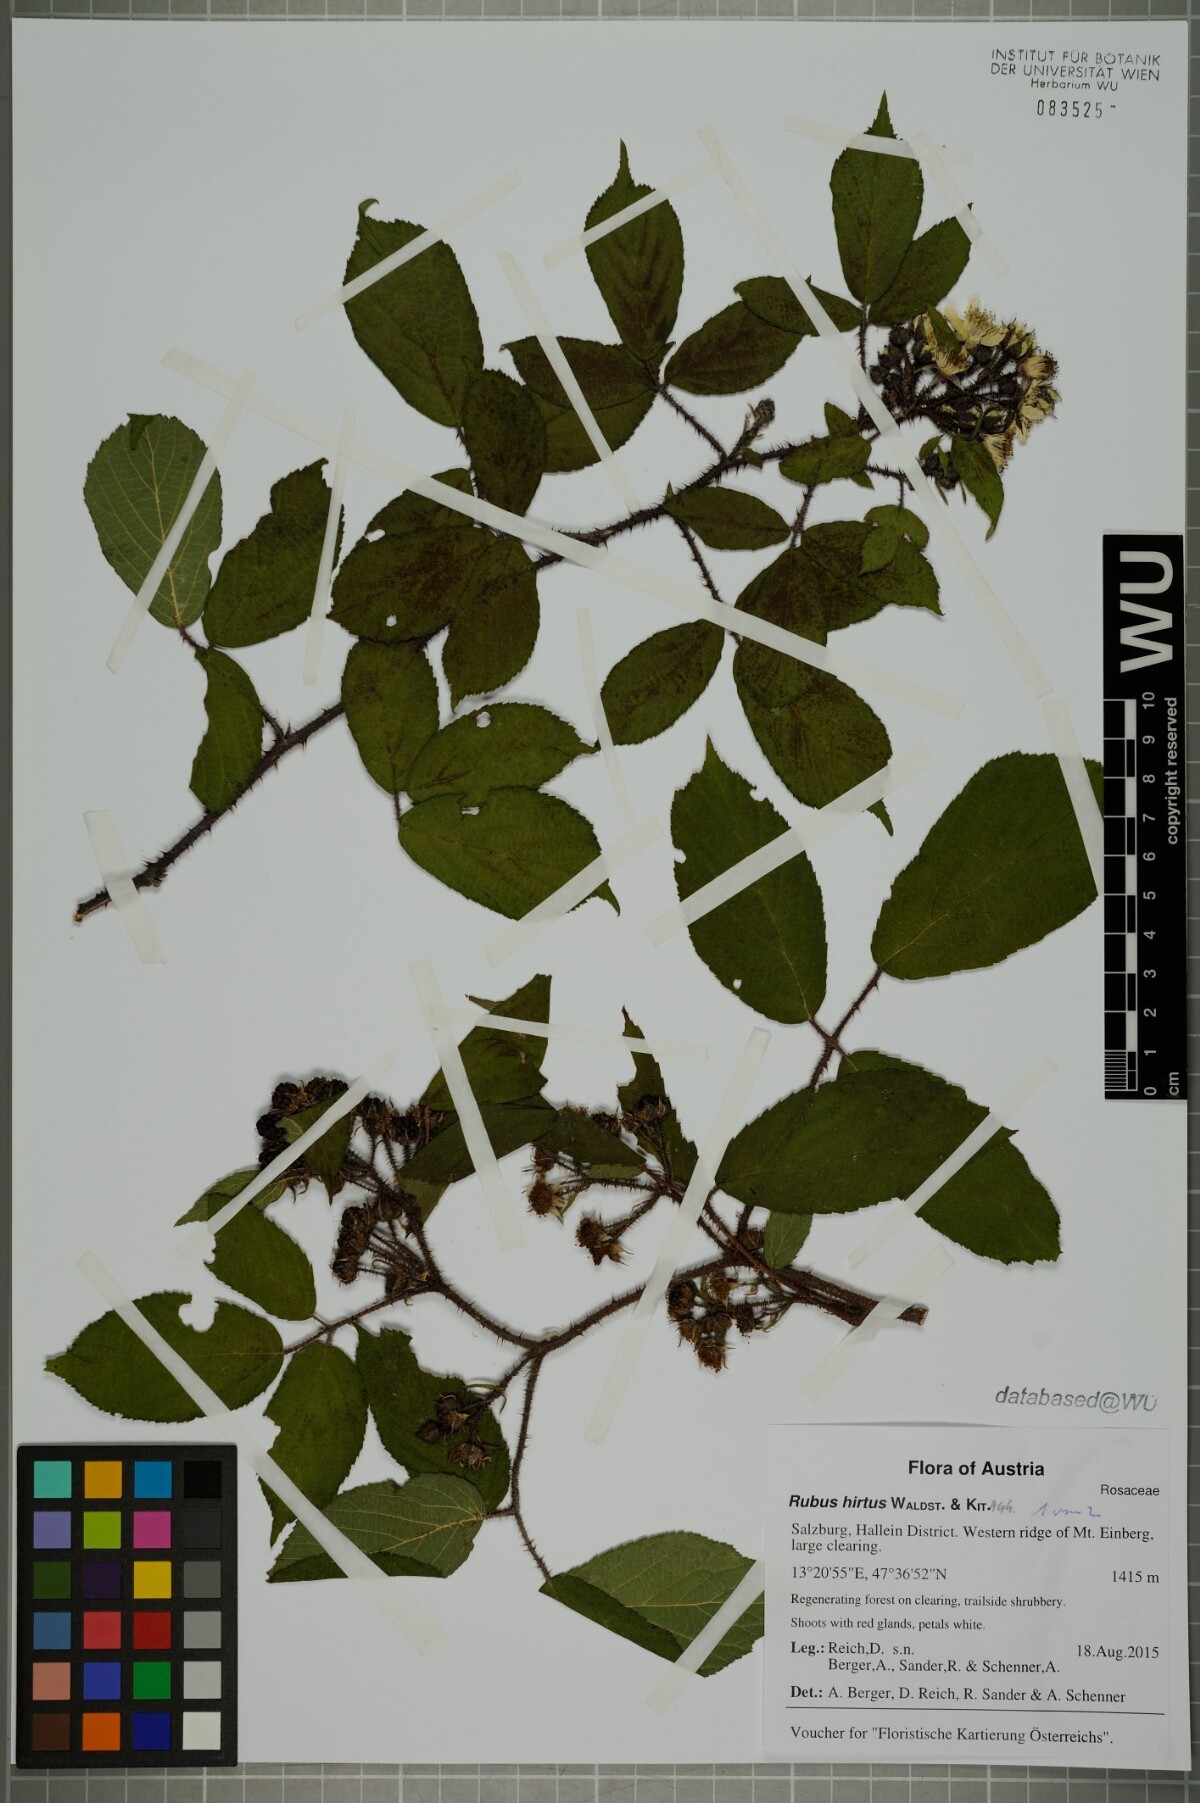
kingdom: Plantae
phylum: Tracheophyta
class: Magnoliopsida
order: Rosales
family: Rosaceae
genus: Rubus
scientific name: Rubus hirtus
